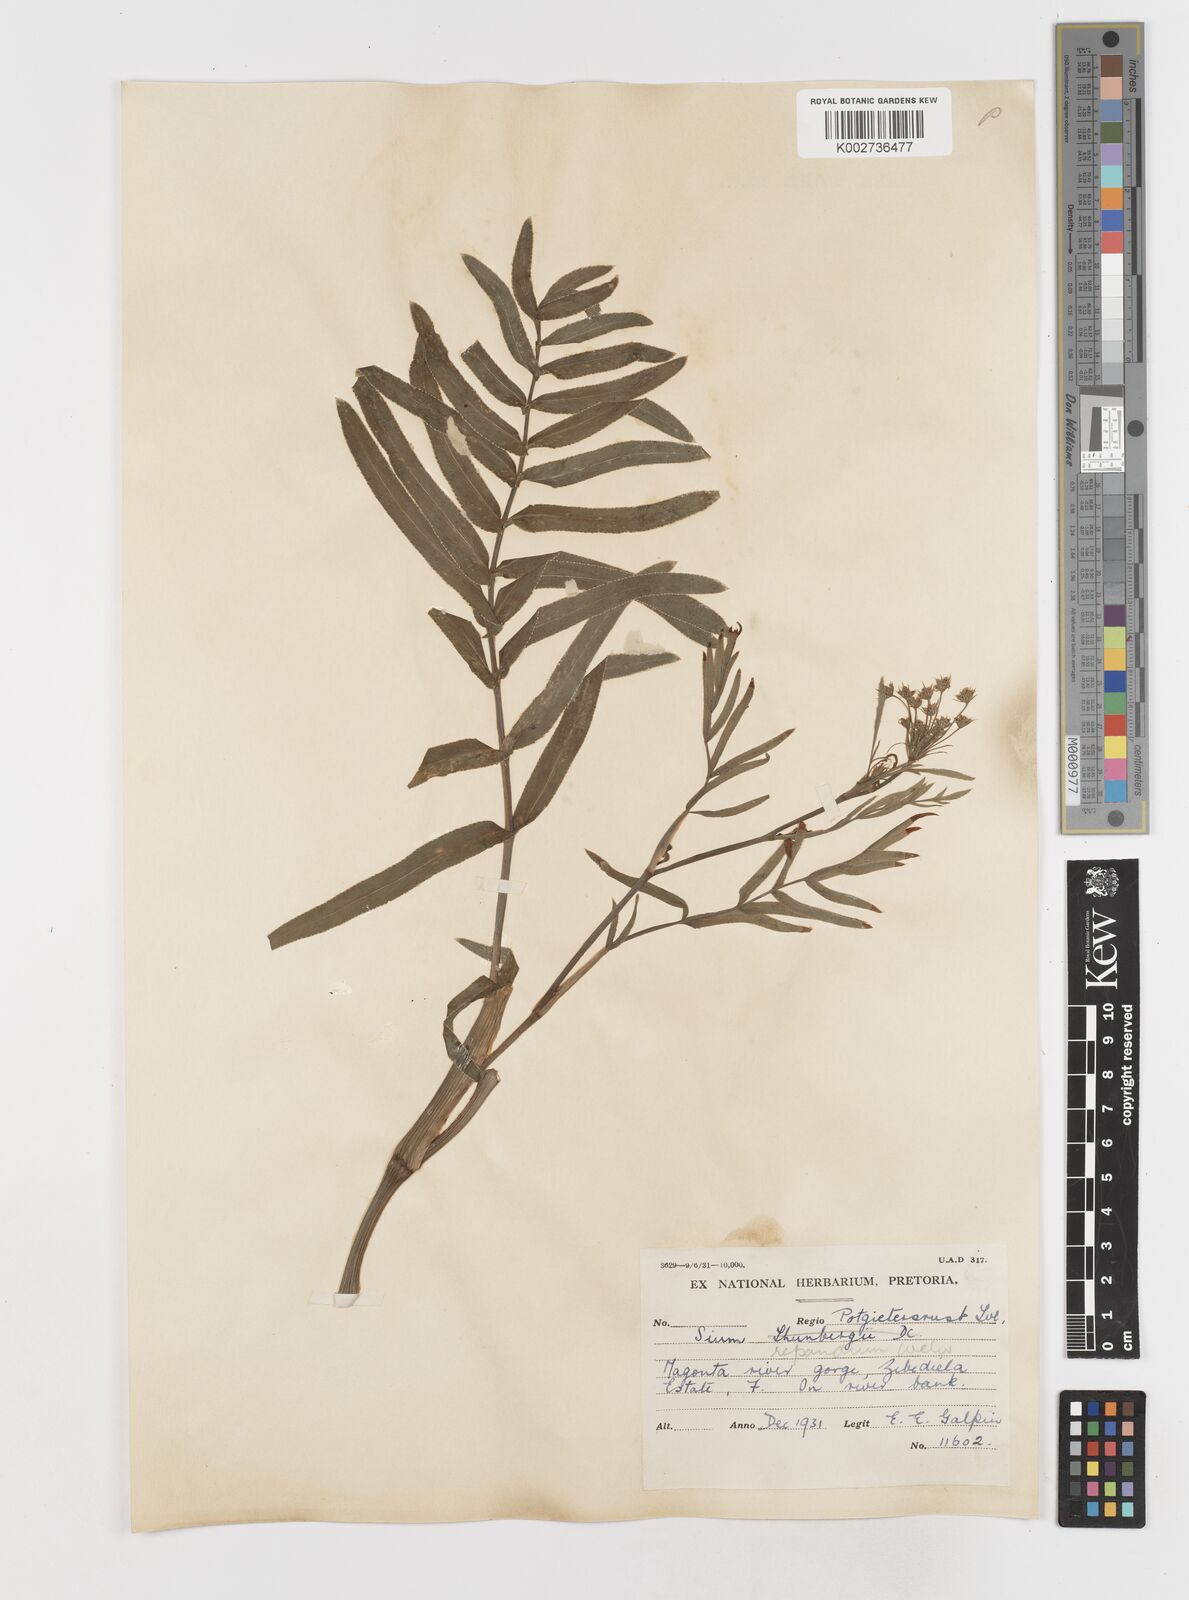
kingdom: Plantae
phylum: Tracheophyta
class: Magnoliopsida
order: Apiales
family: Apiaceae
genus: Berula
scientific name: Berula repanda
